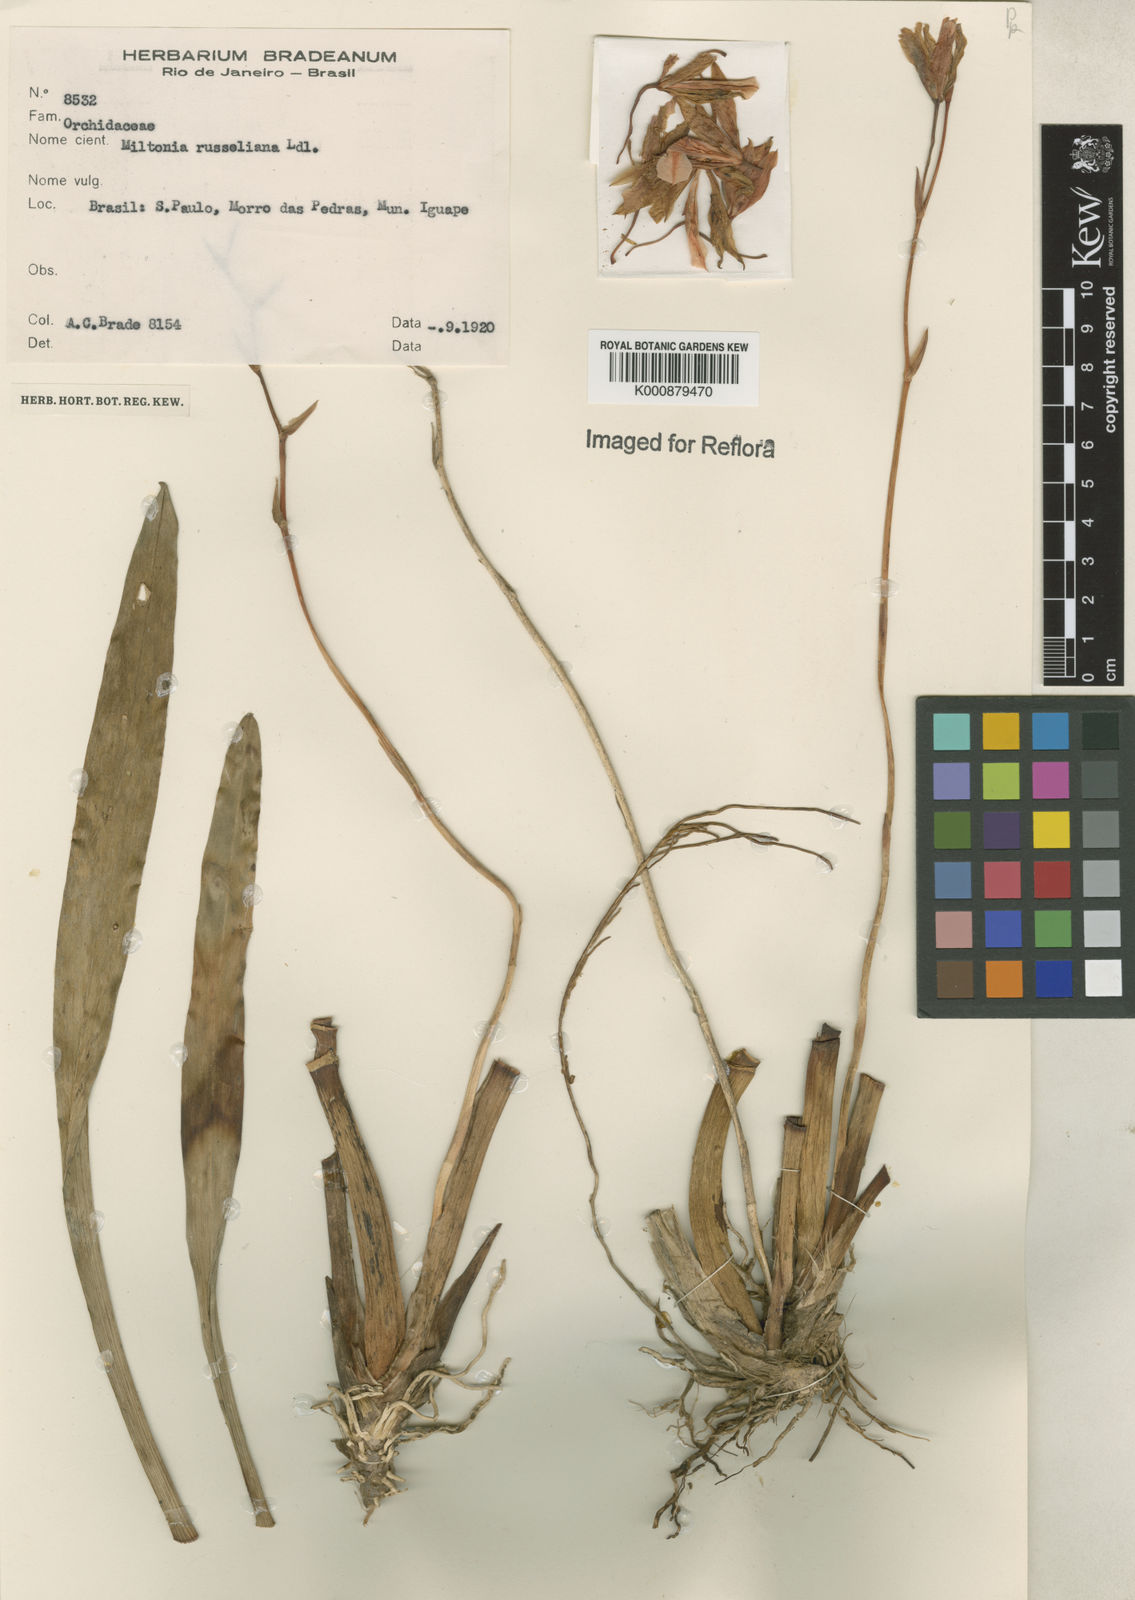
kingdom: Plantae
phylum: Tracheophyta
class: Liliopsida
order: Asparagales
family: Orchidaceae
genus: Miltonia
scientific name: Miltonia russelliana
